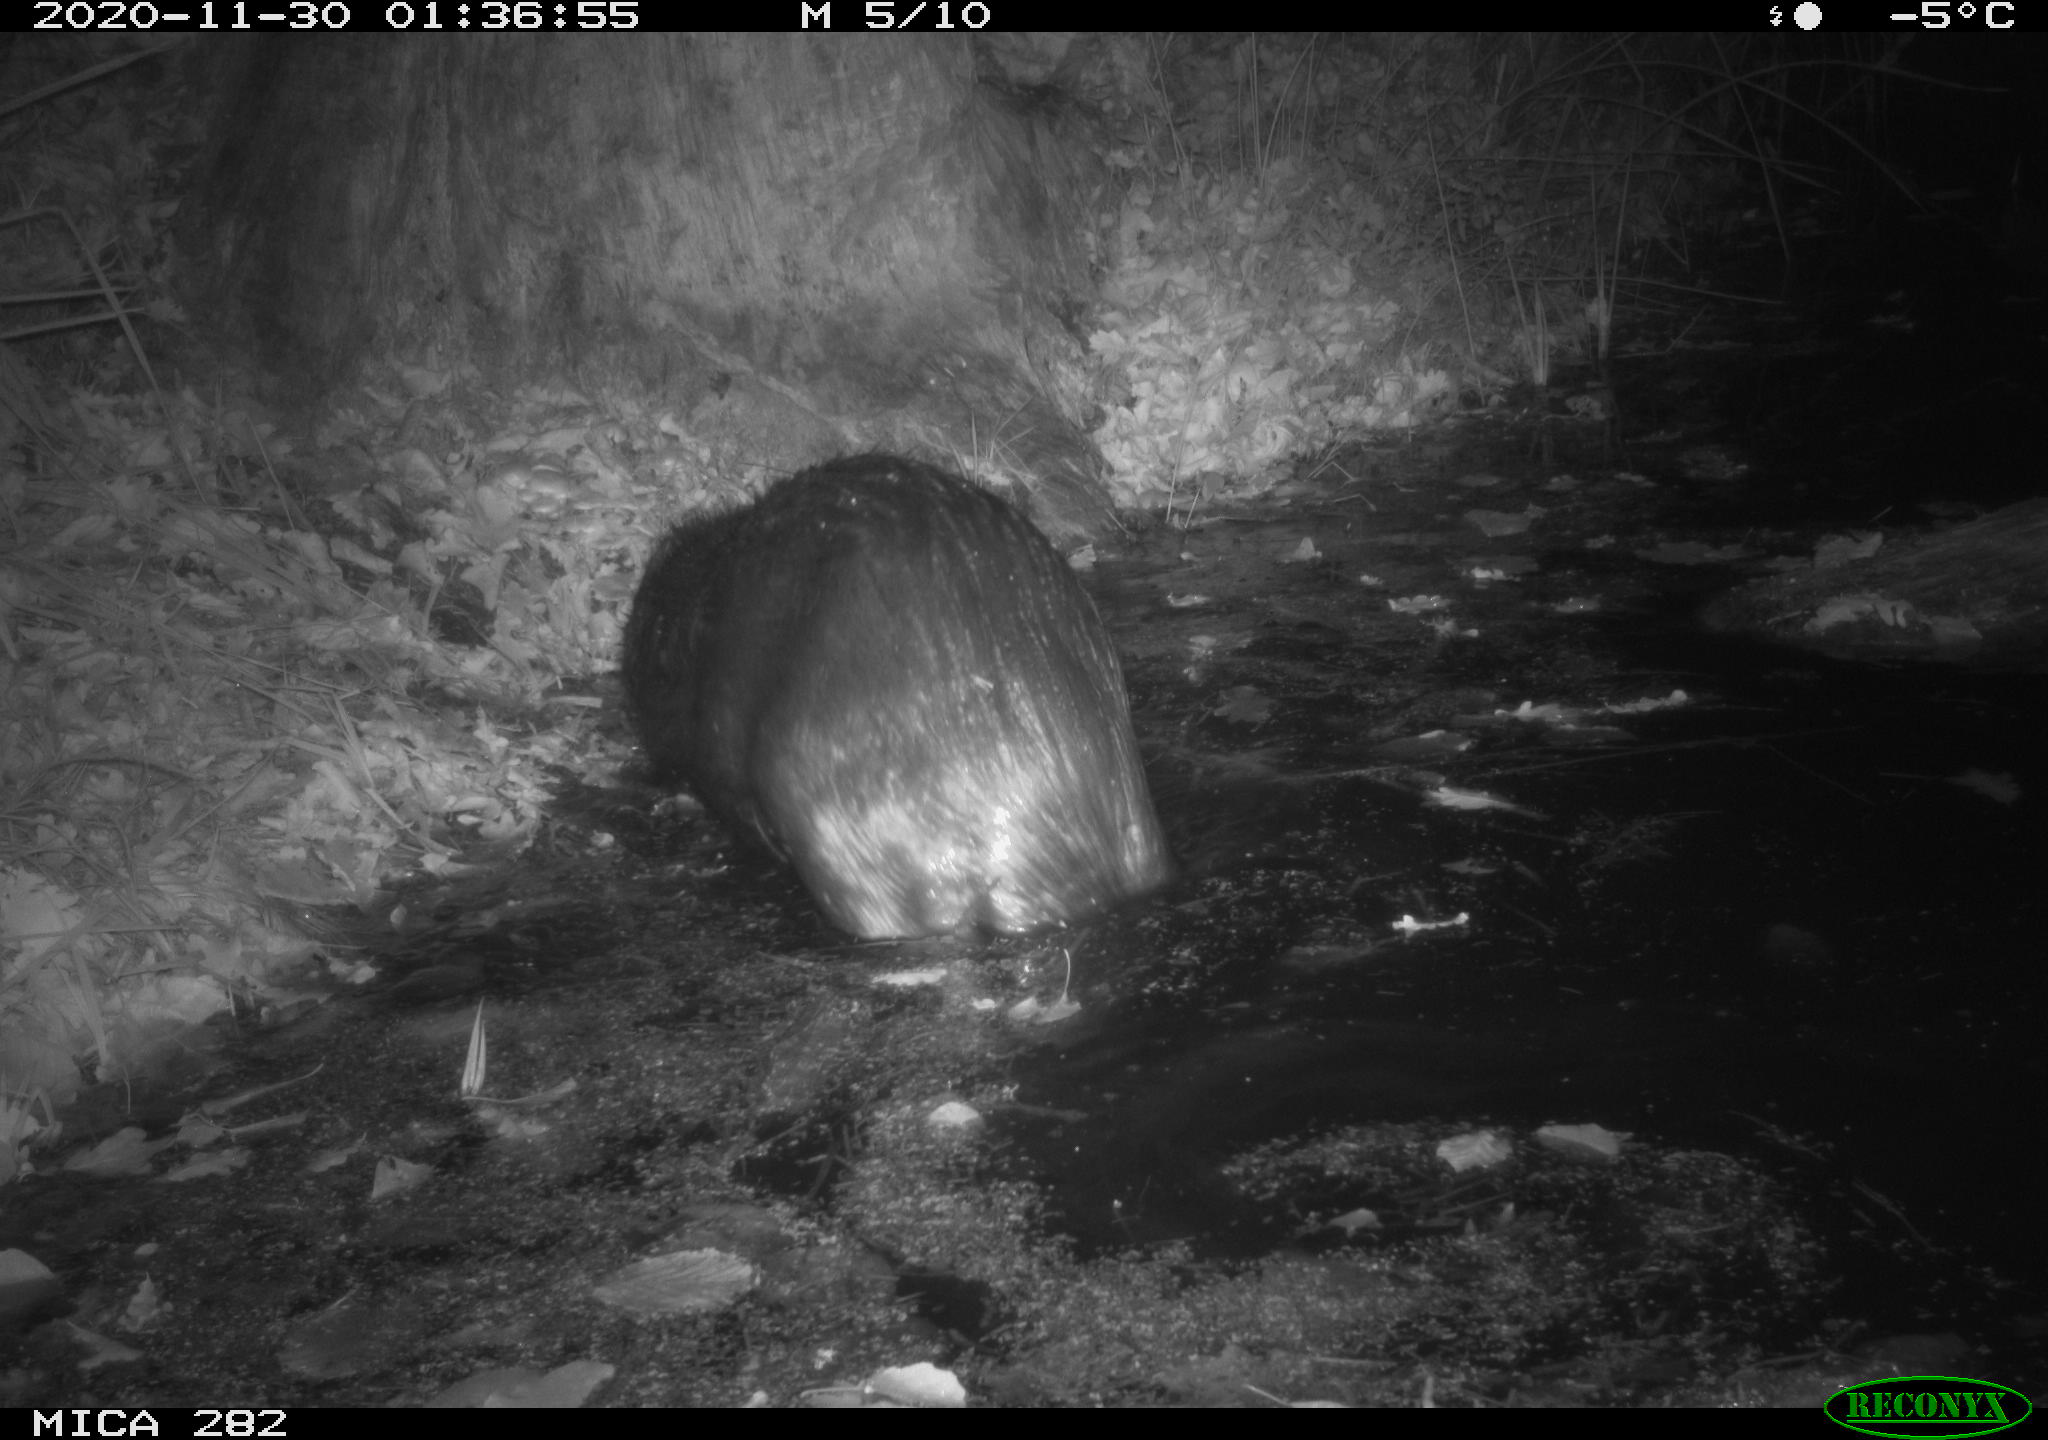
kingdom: Animalia
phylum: Chordata
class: Mammalia
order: Rodentia
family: Castoridae
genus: Castor
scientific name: Castor fiber
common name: Eurasian beaver
